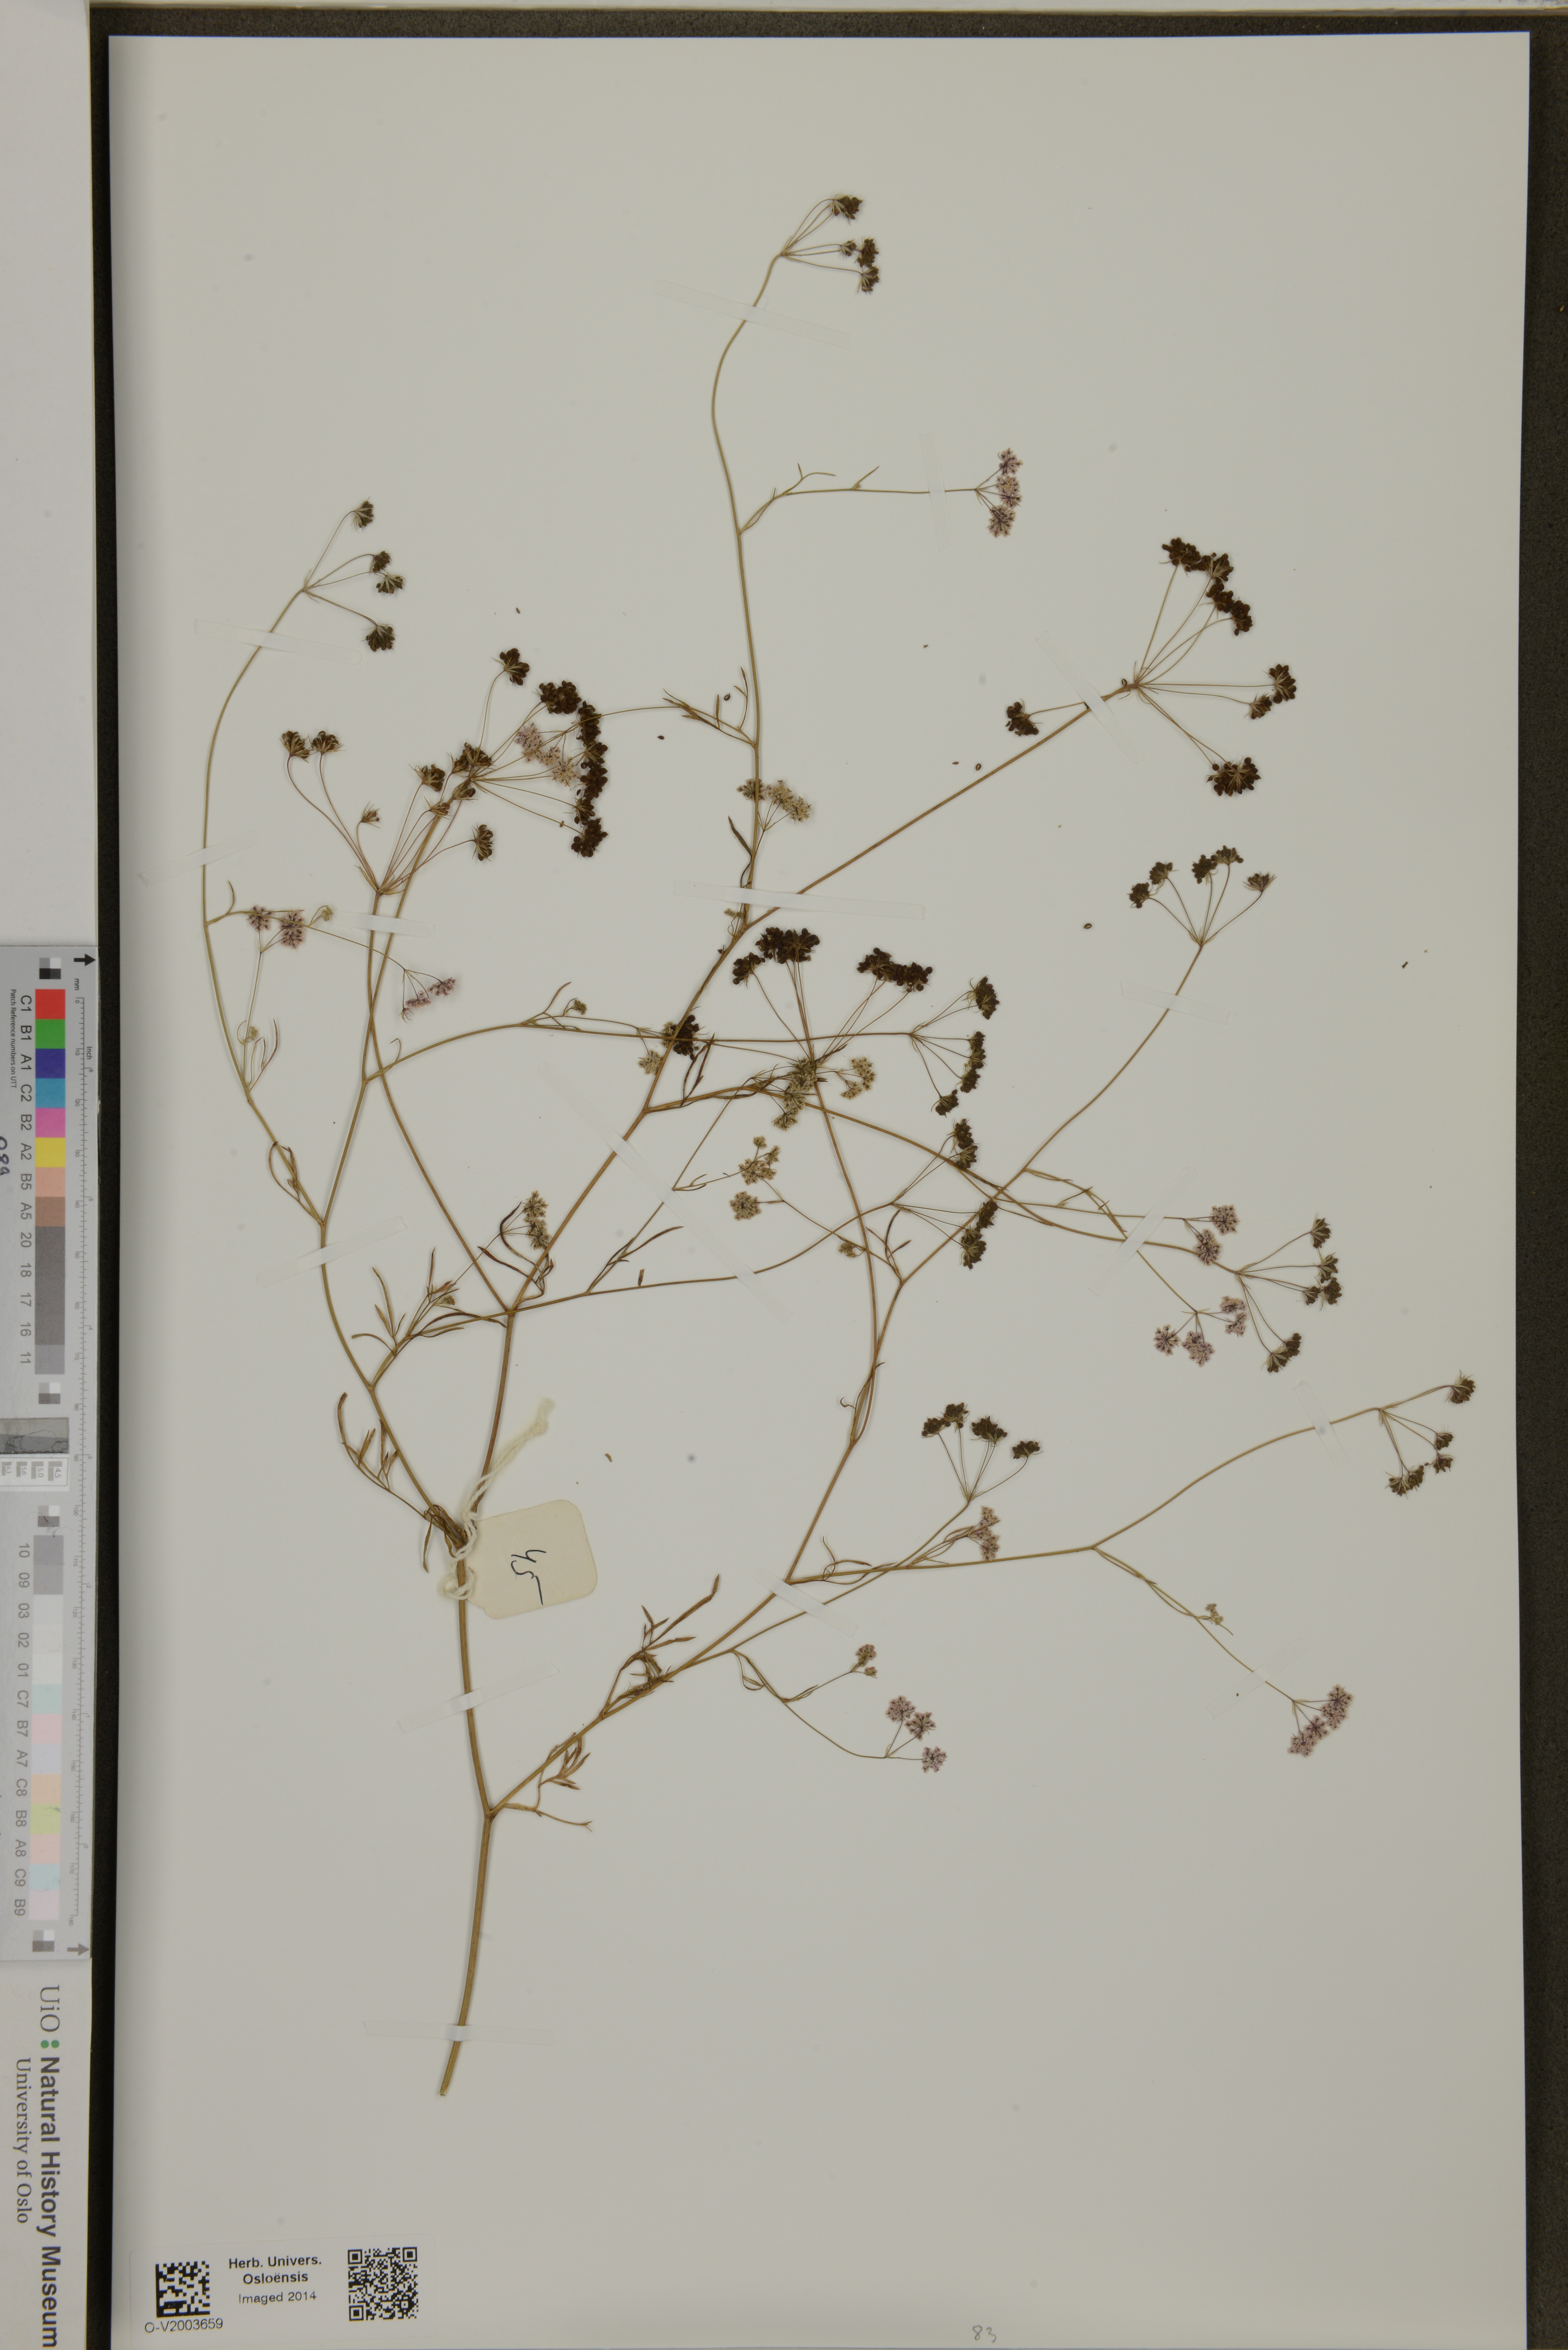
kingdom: Plantae
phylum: Tracheophyta
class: Magnoliopsida
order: Apiales
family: Apiaceae
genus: Pimpinella
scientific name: Pimpinella heyneana
